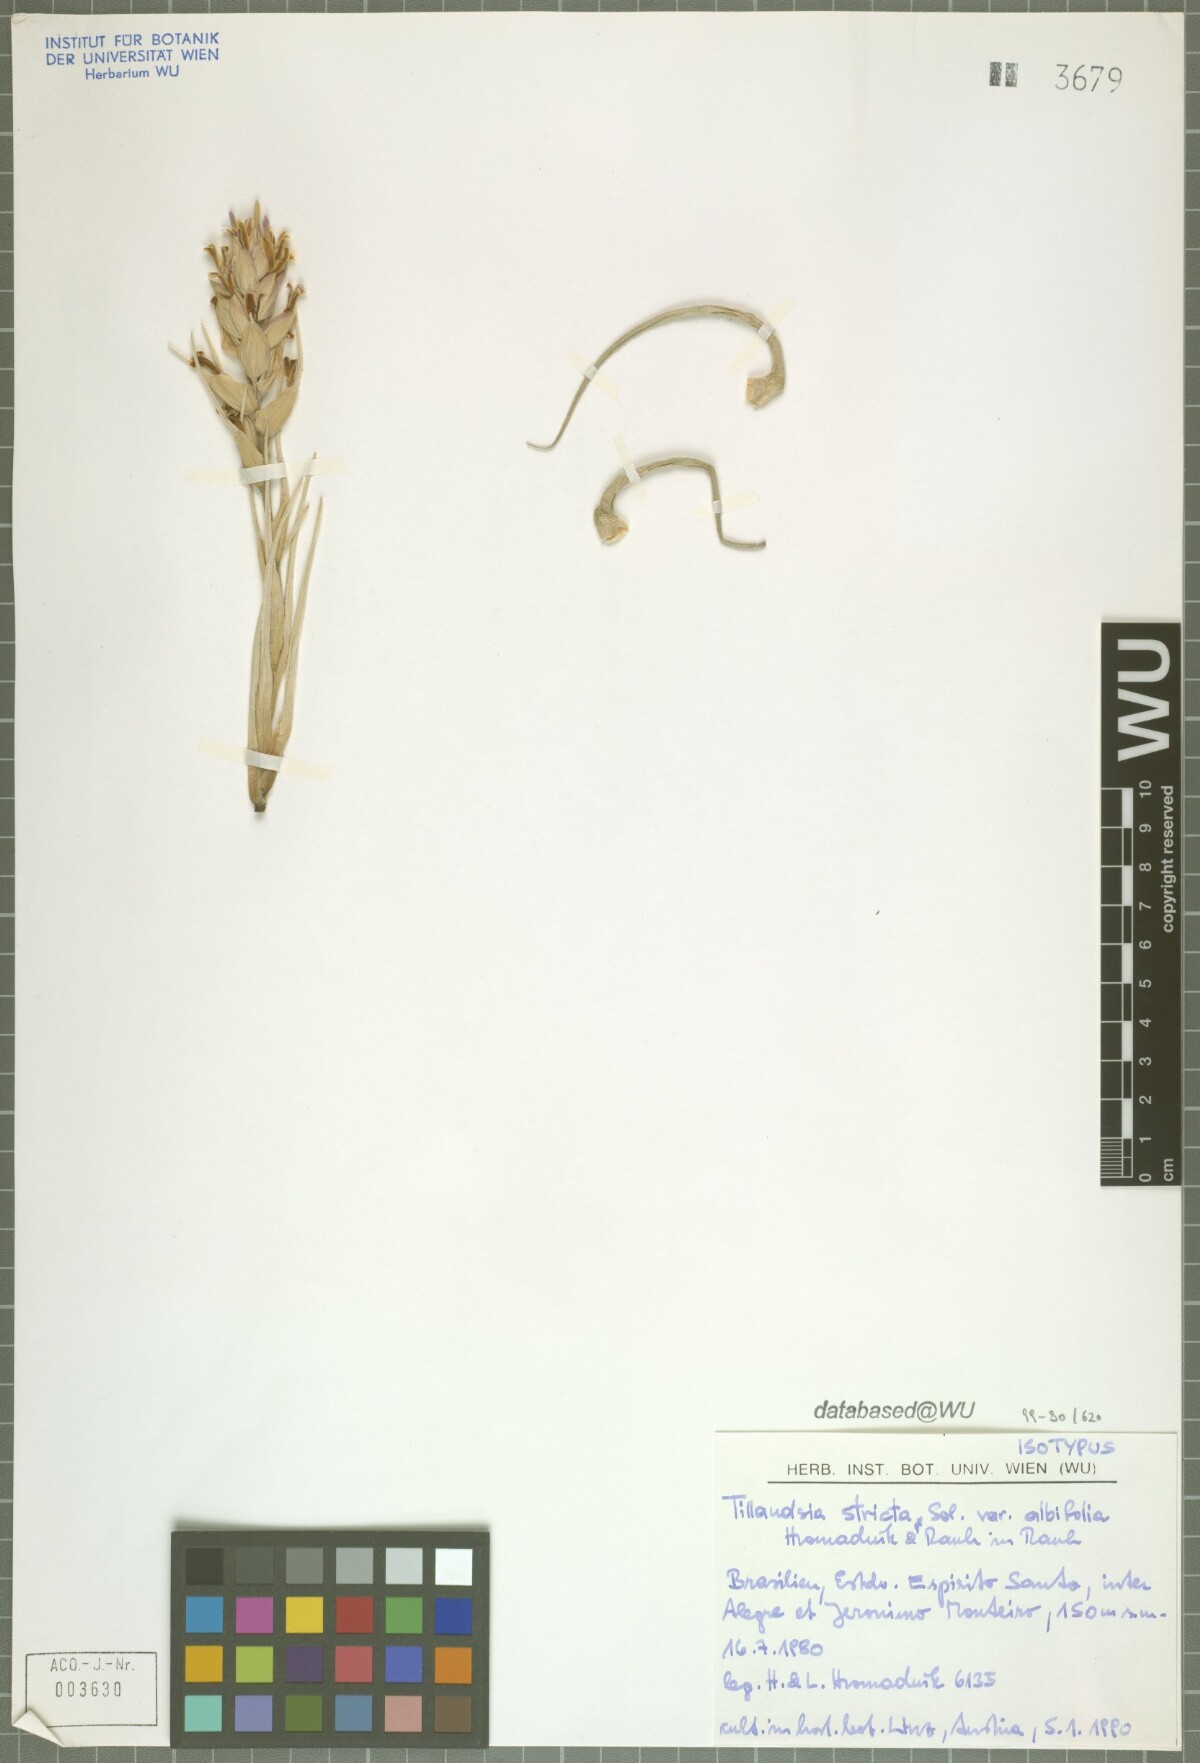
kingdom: Plantae
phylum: Tracheophyta
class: Liliopsida
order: Poales
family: Bromeliaceae
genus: Tillandsia
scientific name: Tillandsia stricta
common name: Airplant
